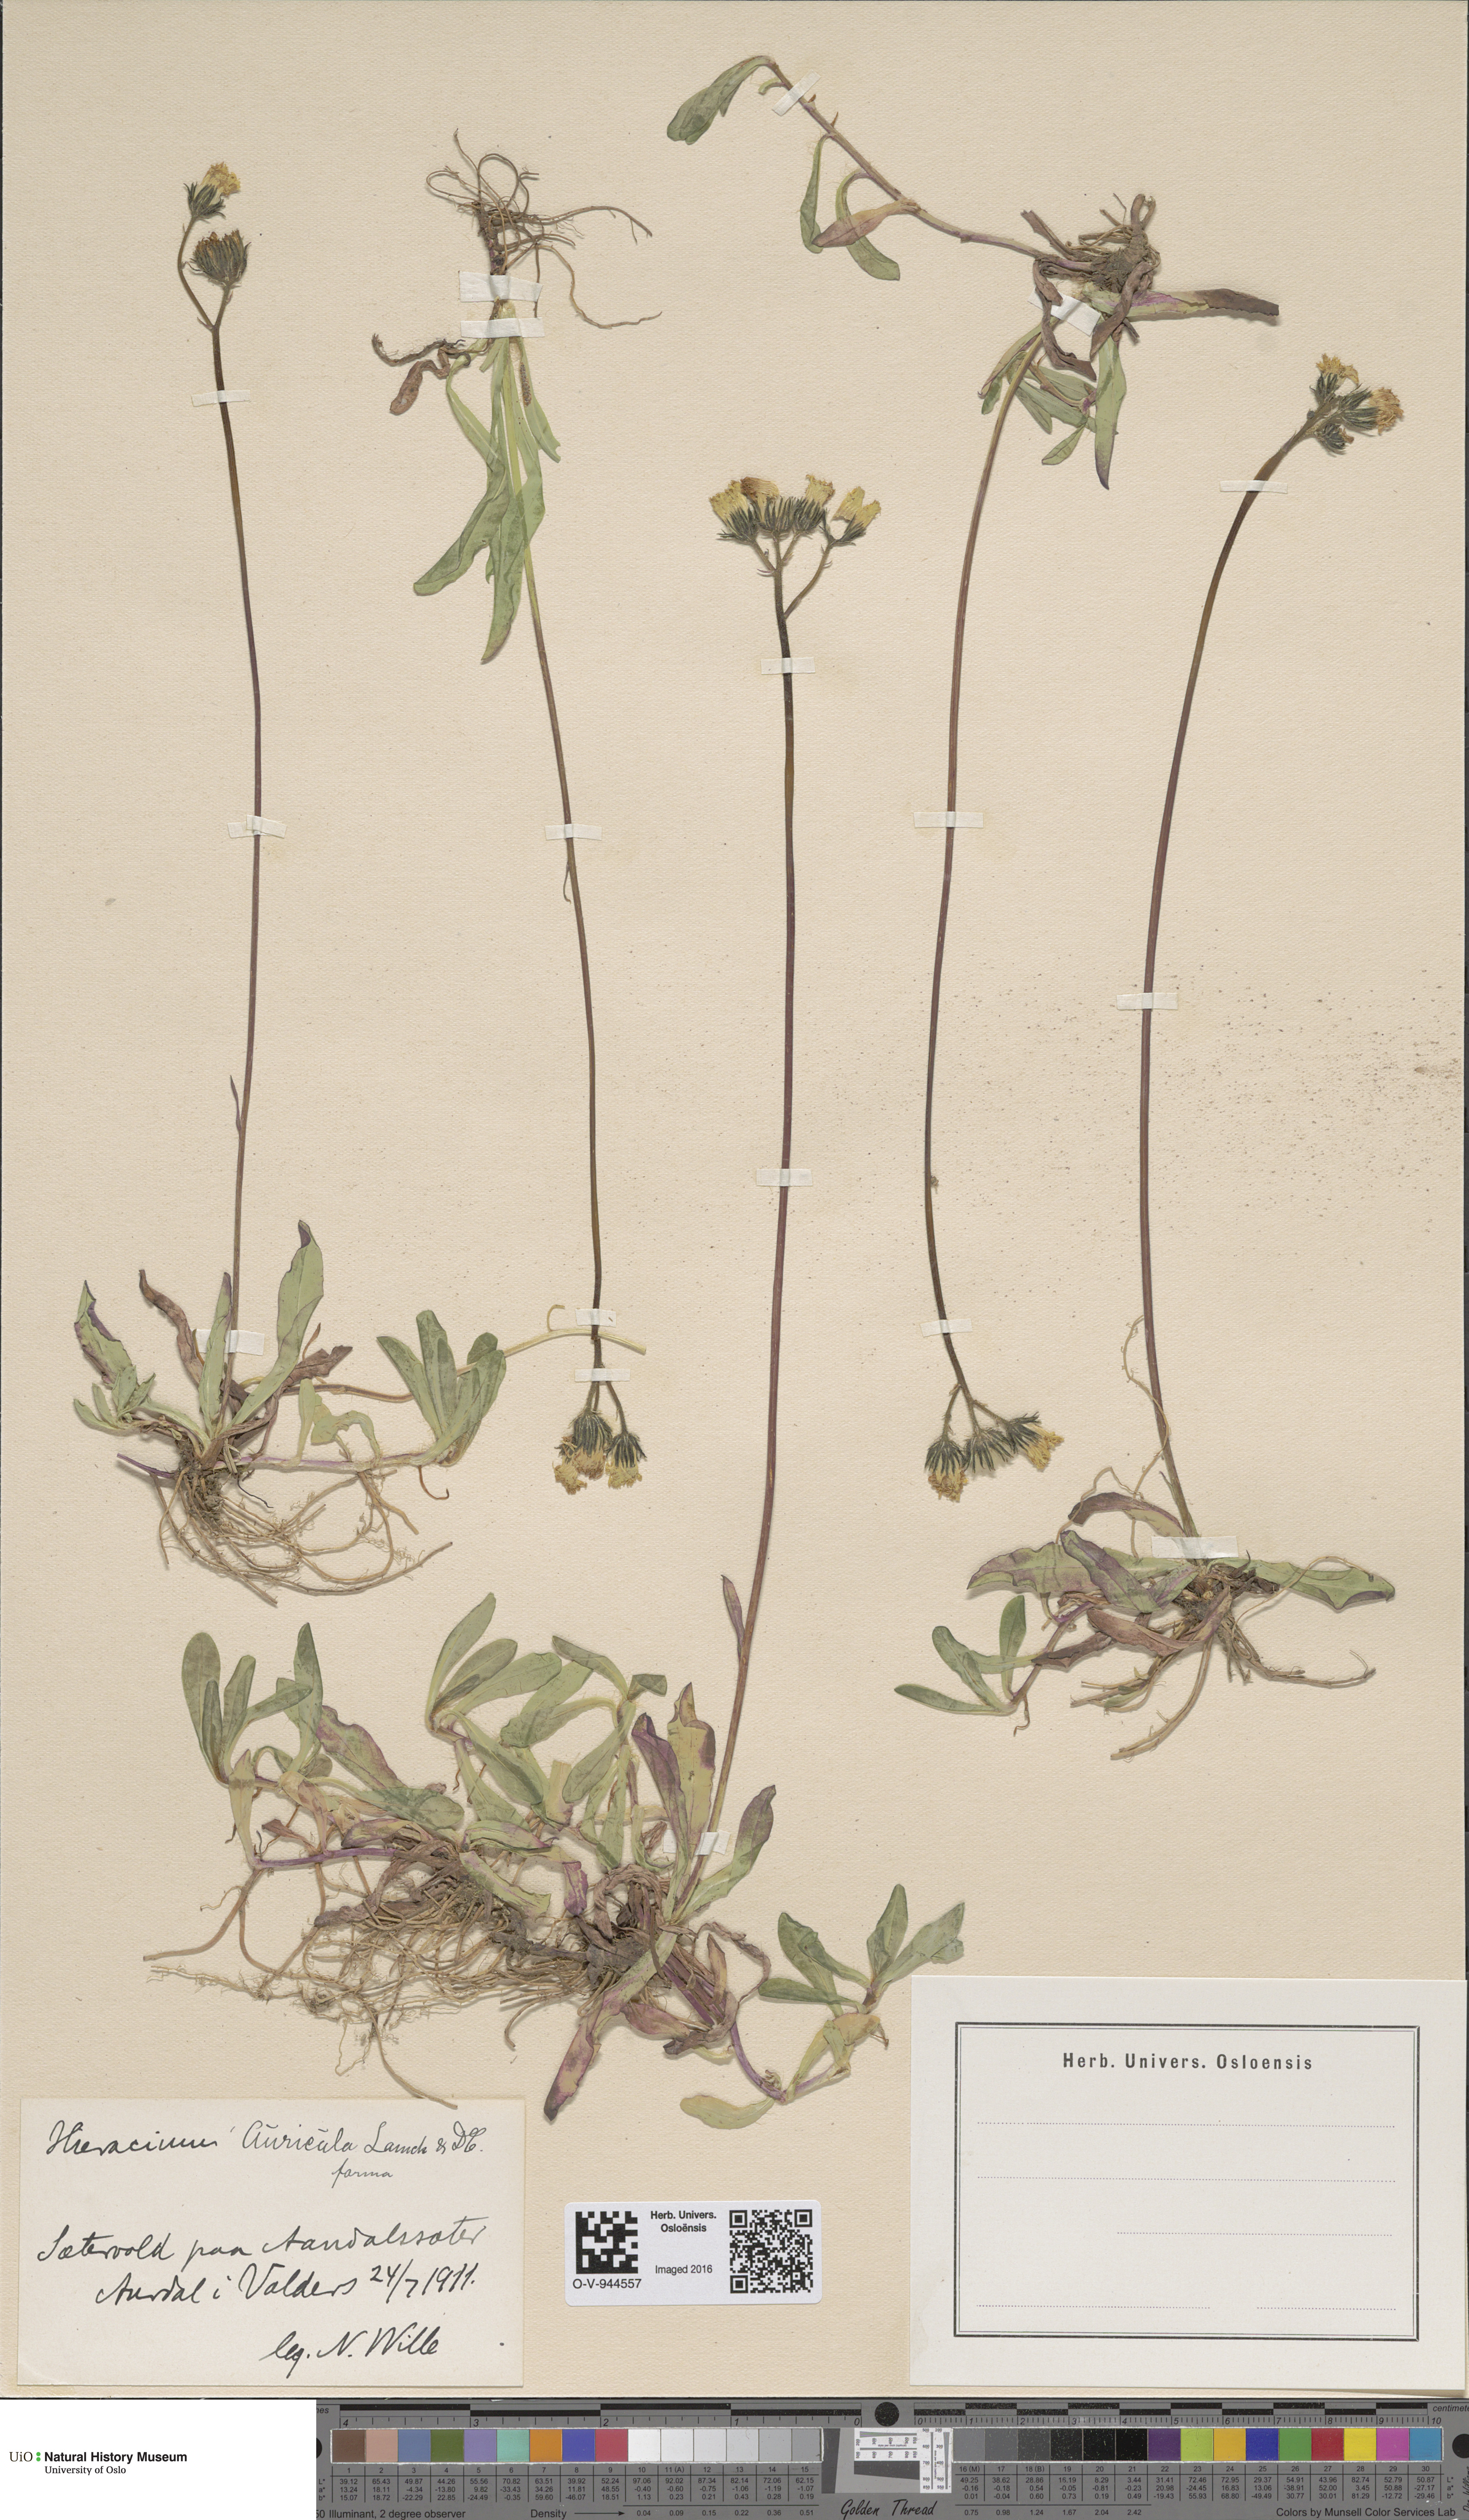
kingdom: Plantae
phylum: Tracheophyta
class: Magnoliopsida
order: Asterales
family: Asteraceae
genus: Pilosella
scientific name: Pilosella lactucella
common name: Glaucous fox-and-cubs
